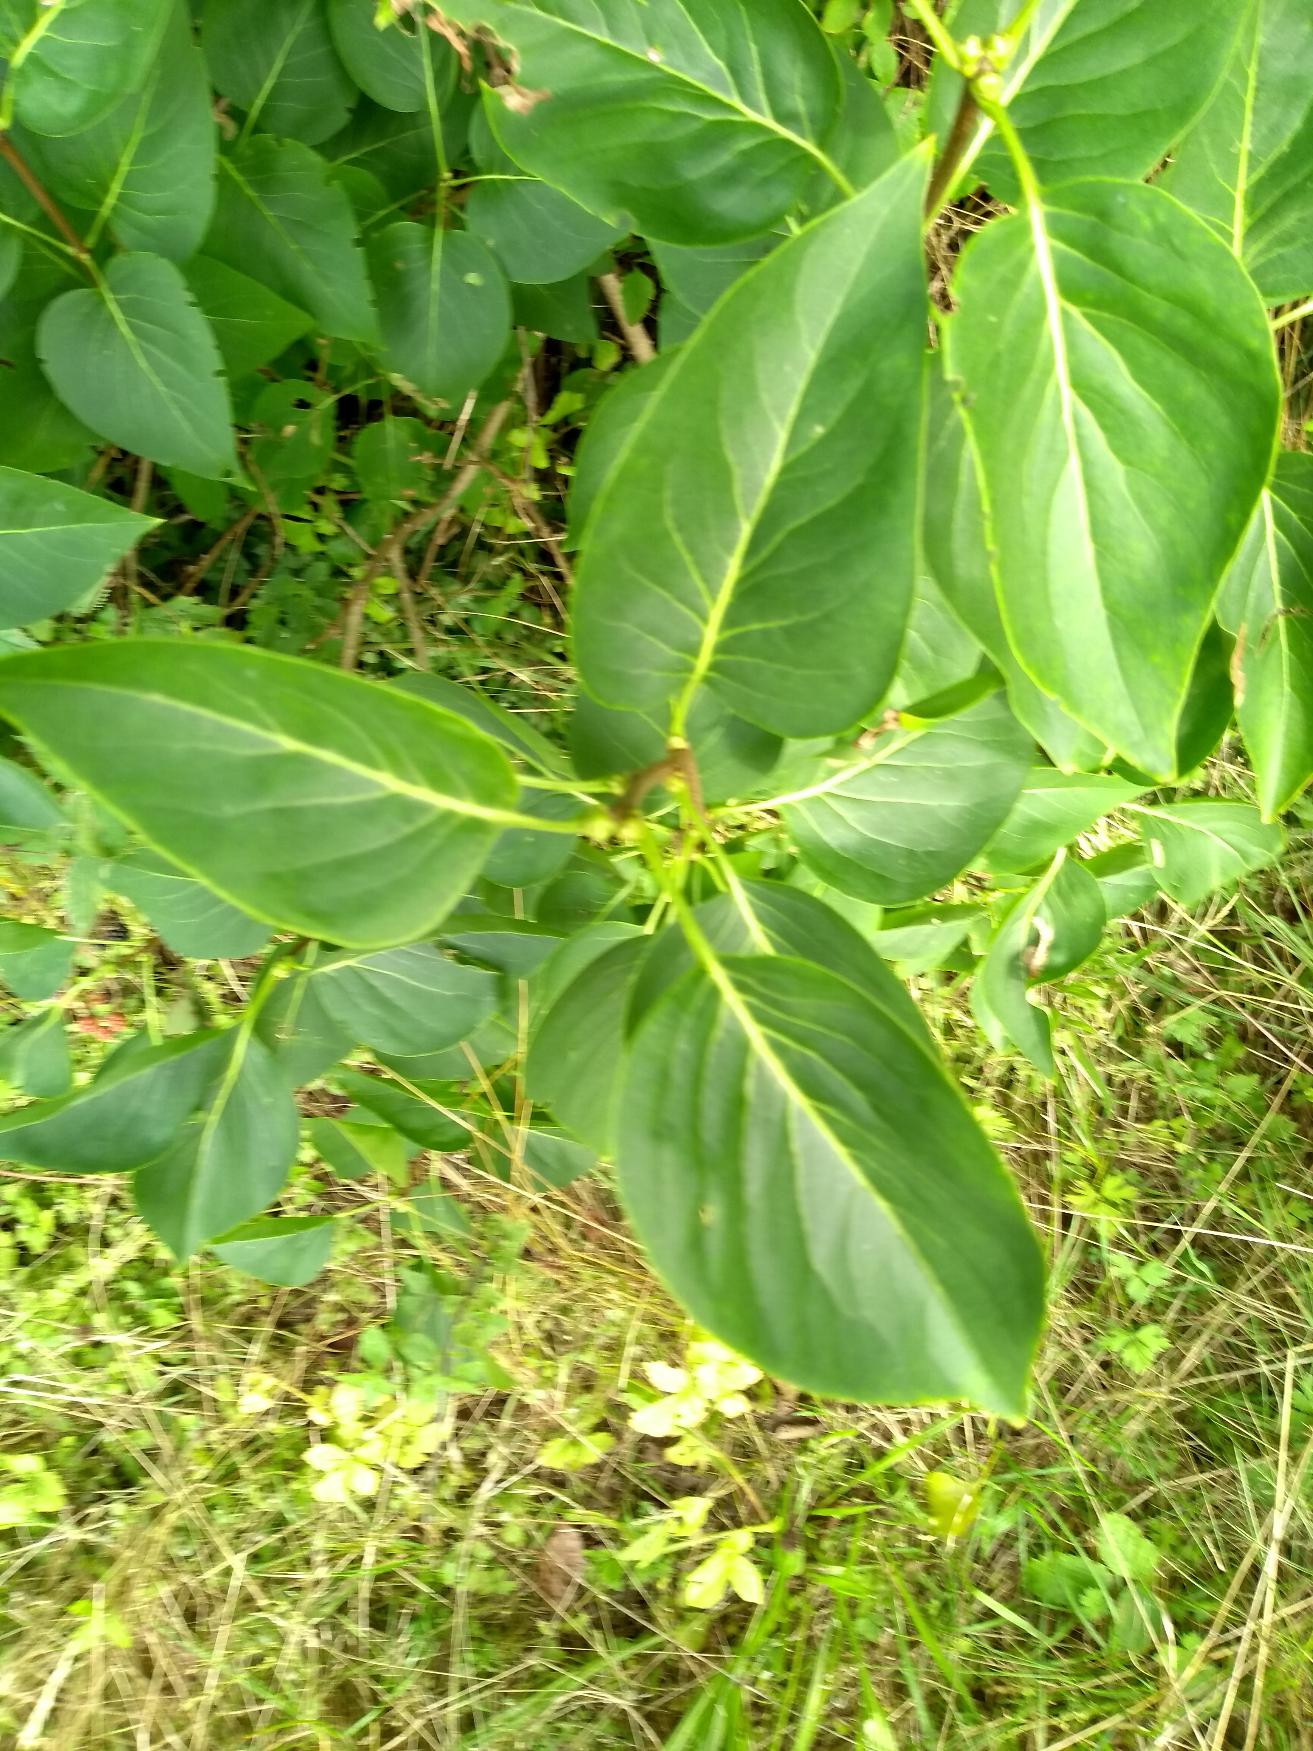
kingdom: Plantae
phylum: Tracheophyta
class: Magnoliopsida
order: Lamiales
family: Oleaceae
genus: Syringa
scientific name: Syringa vulgaris
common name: Syren
